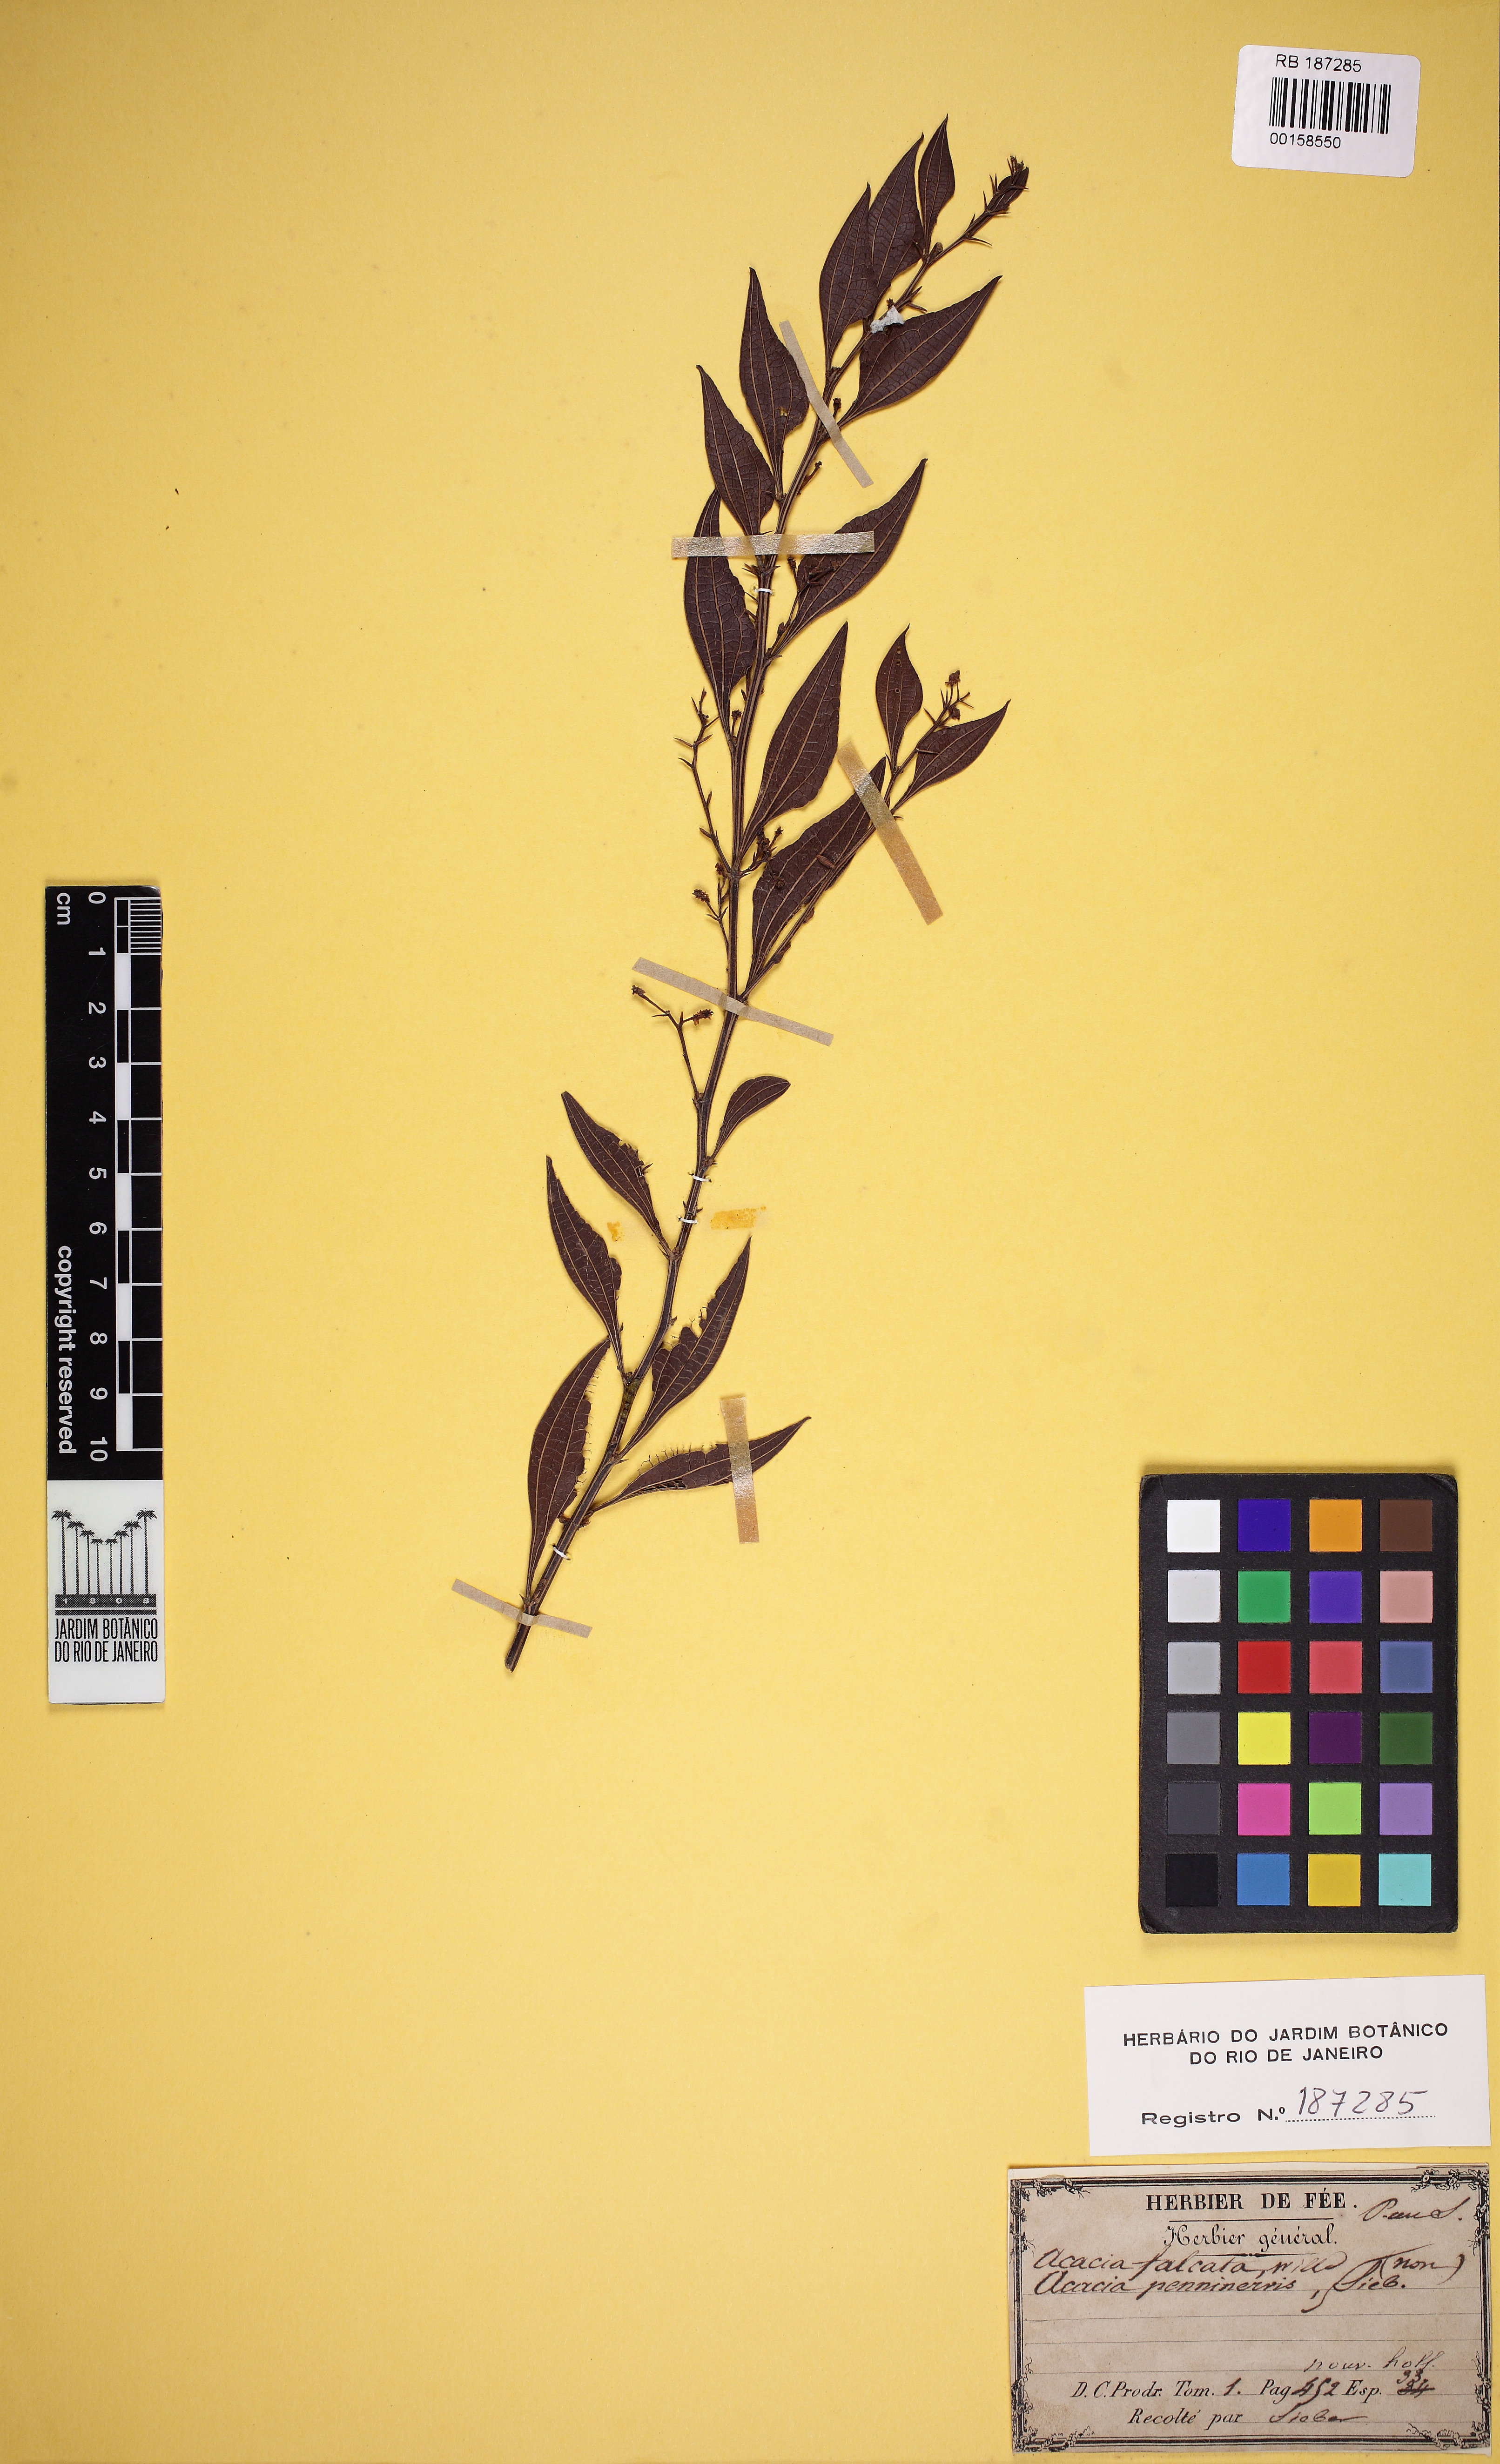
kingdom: Plantae
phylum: Tracheophyta
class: Magnoliopsida
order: Fabales
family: Fabaceae
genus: Acacia
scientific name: Acacia falcata
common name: Burra acacia
